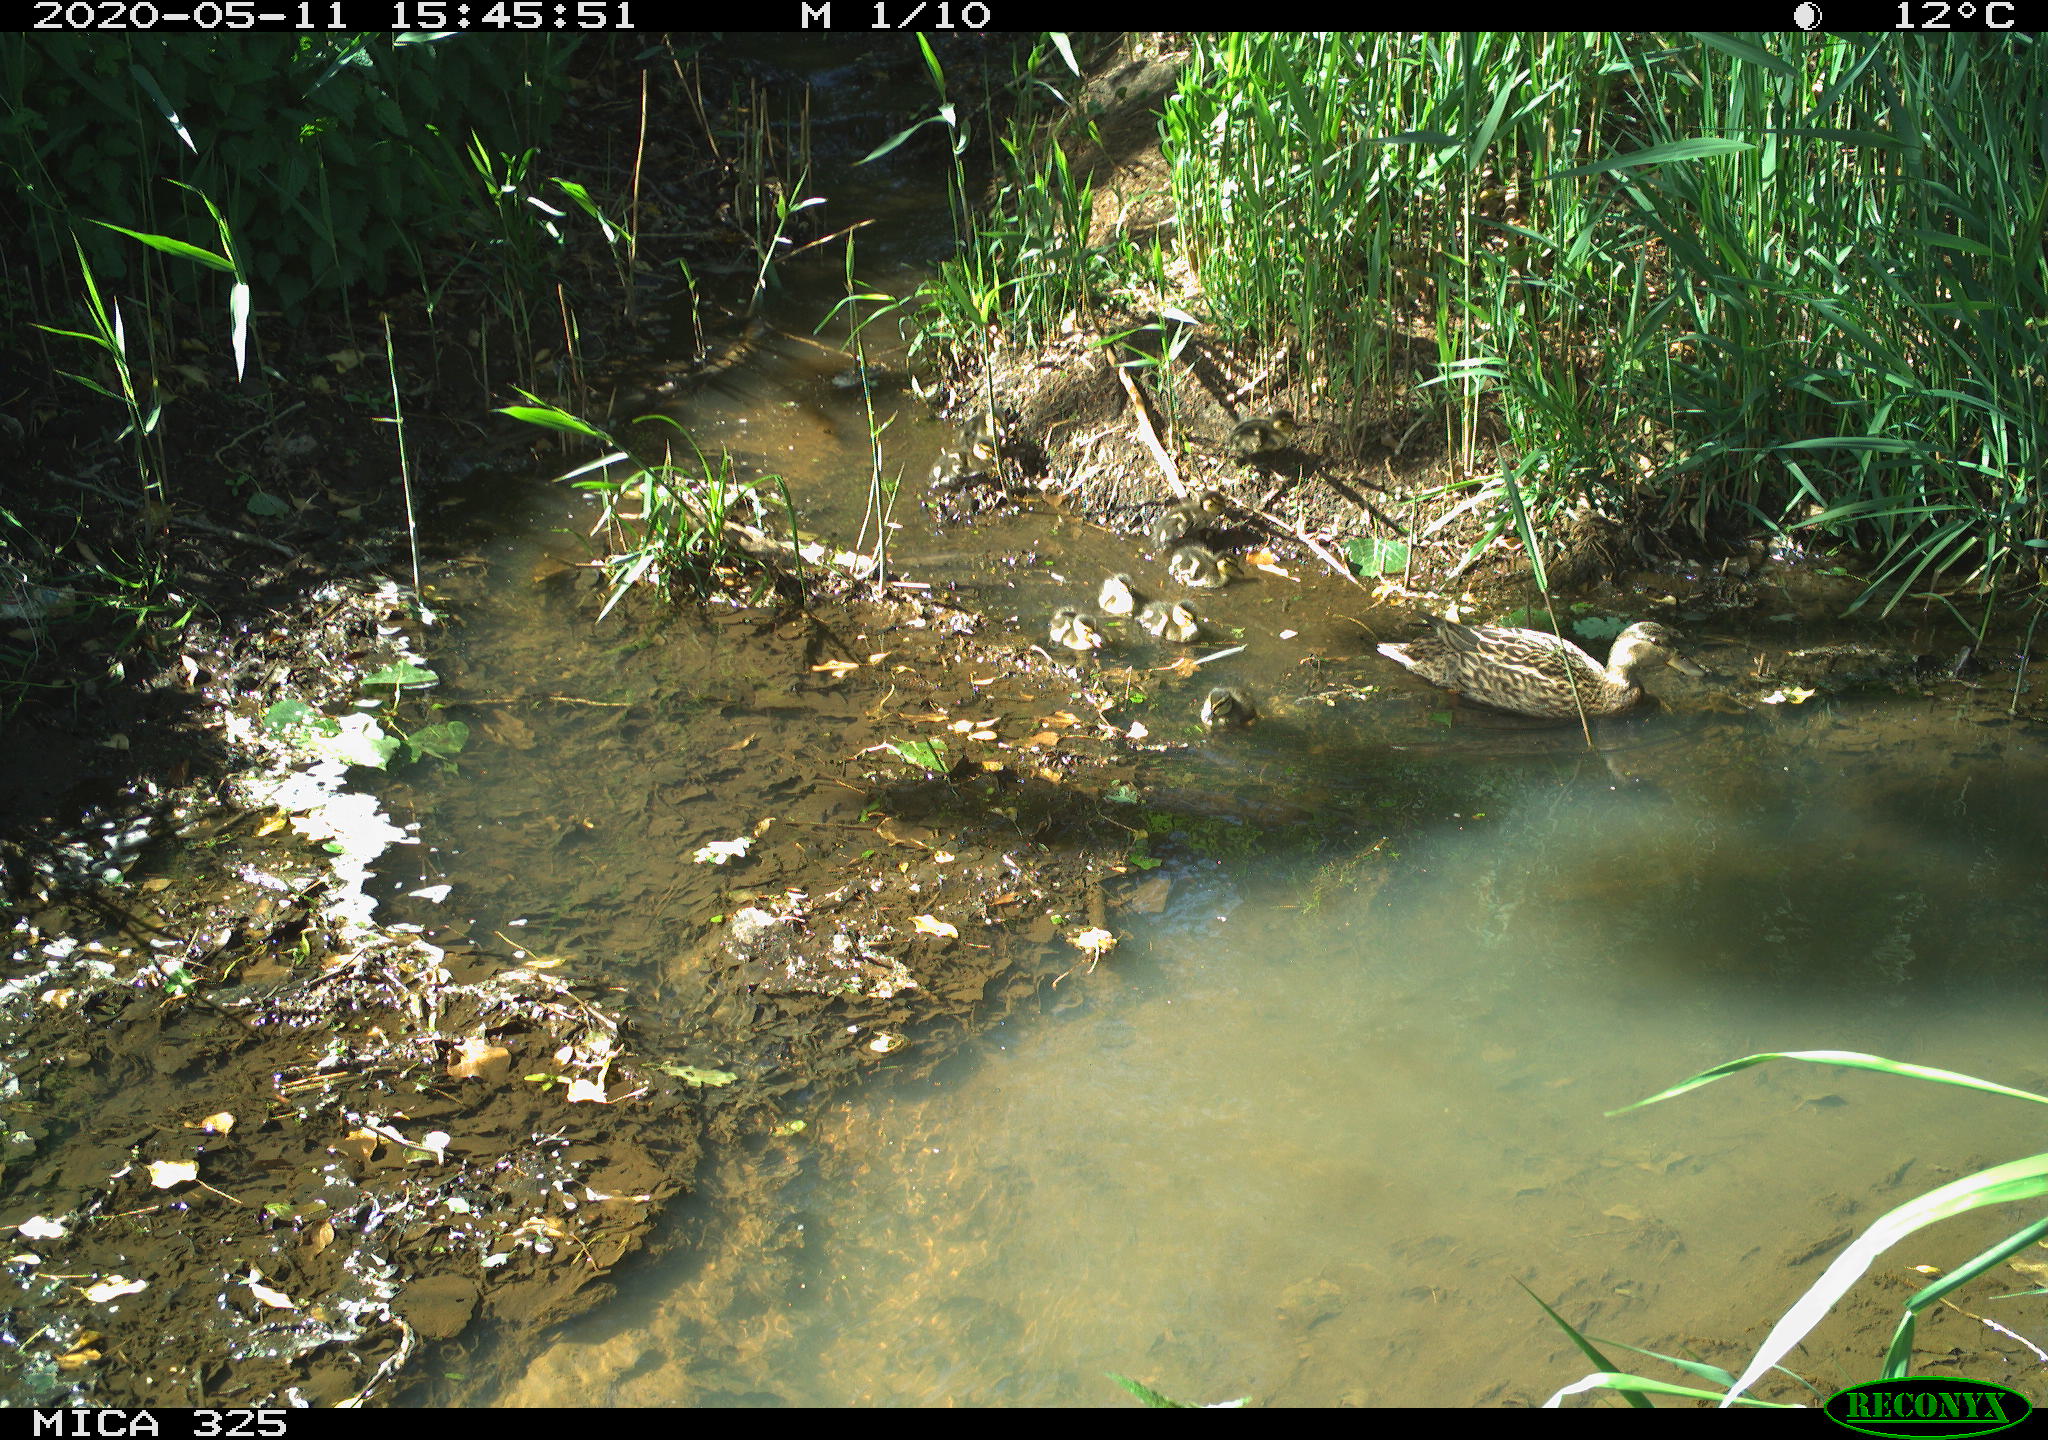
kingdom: Animalia
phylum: Chordata
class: Aves
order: Anseriformes
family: Anatidae
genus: Anas
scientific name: Anas platyrhynchos
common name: Mallard
